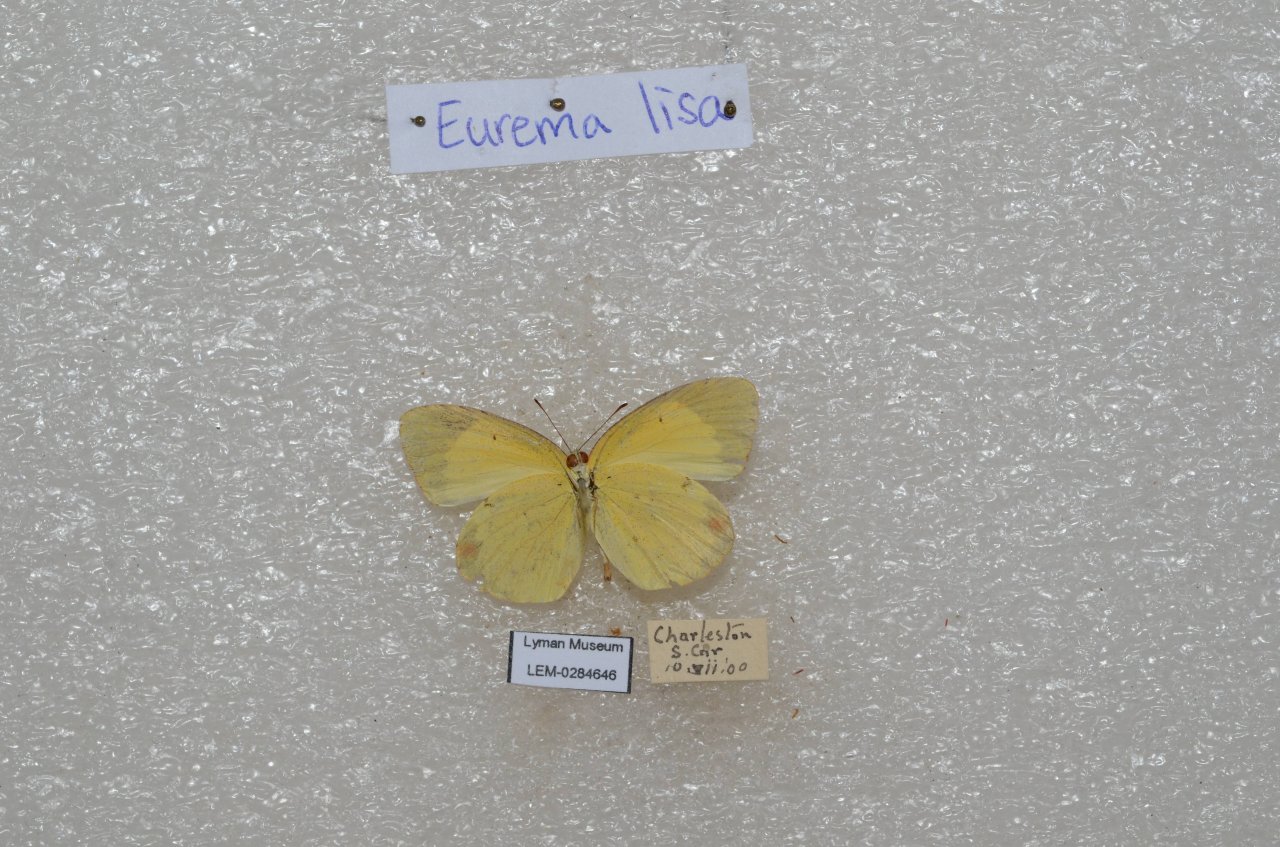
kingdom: Animalia
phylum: Arthropoda
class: Insecta
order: Lepidoptera
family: Pieridae
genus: Pyrisitia
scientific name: Pyrisitia lisa
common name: Little Yellow
